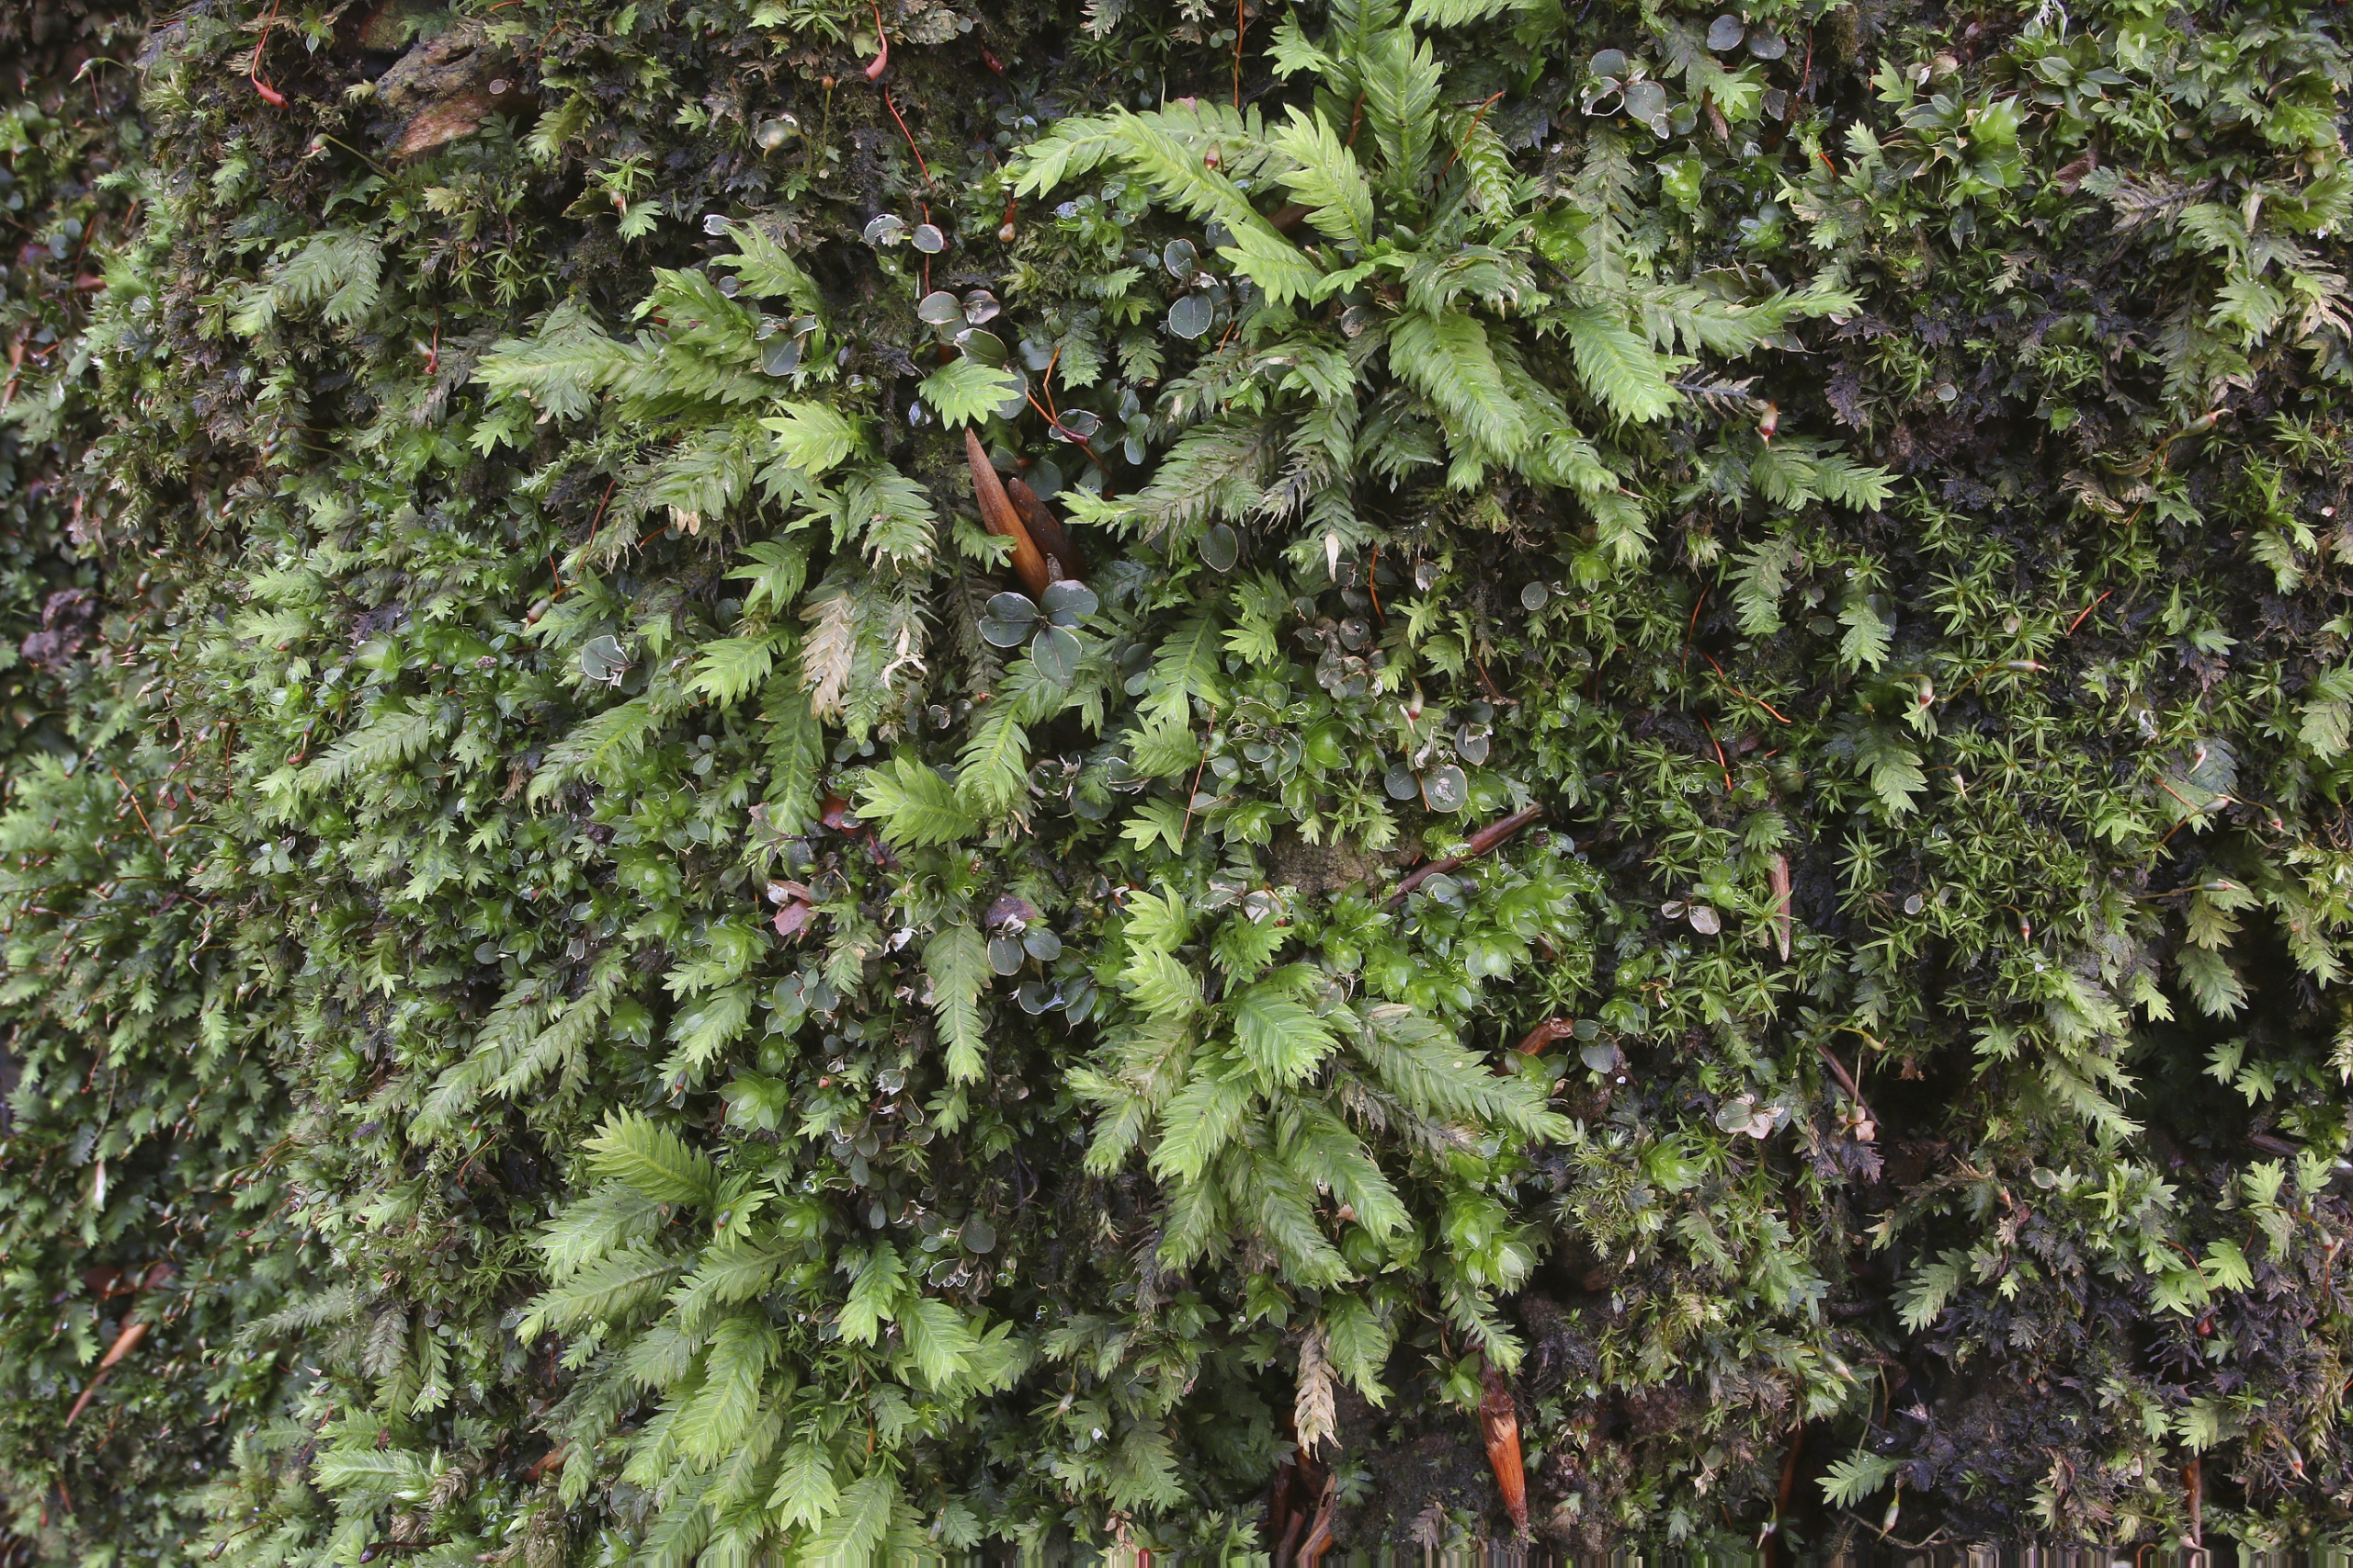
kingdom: Plantae
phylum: Bryophyta
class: Bryopsida
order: Dicranales
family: Fissidentaceae
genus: Fissidens
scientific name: Fissidens dubius
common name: Tør rademos
